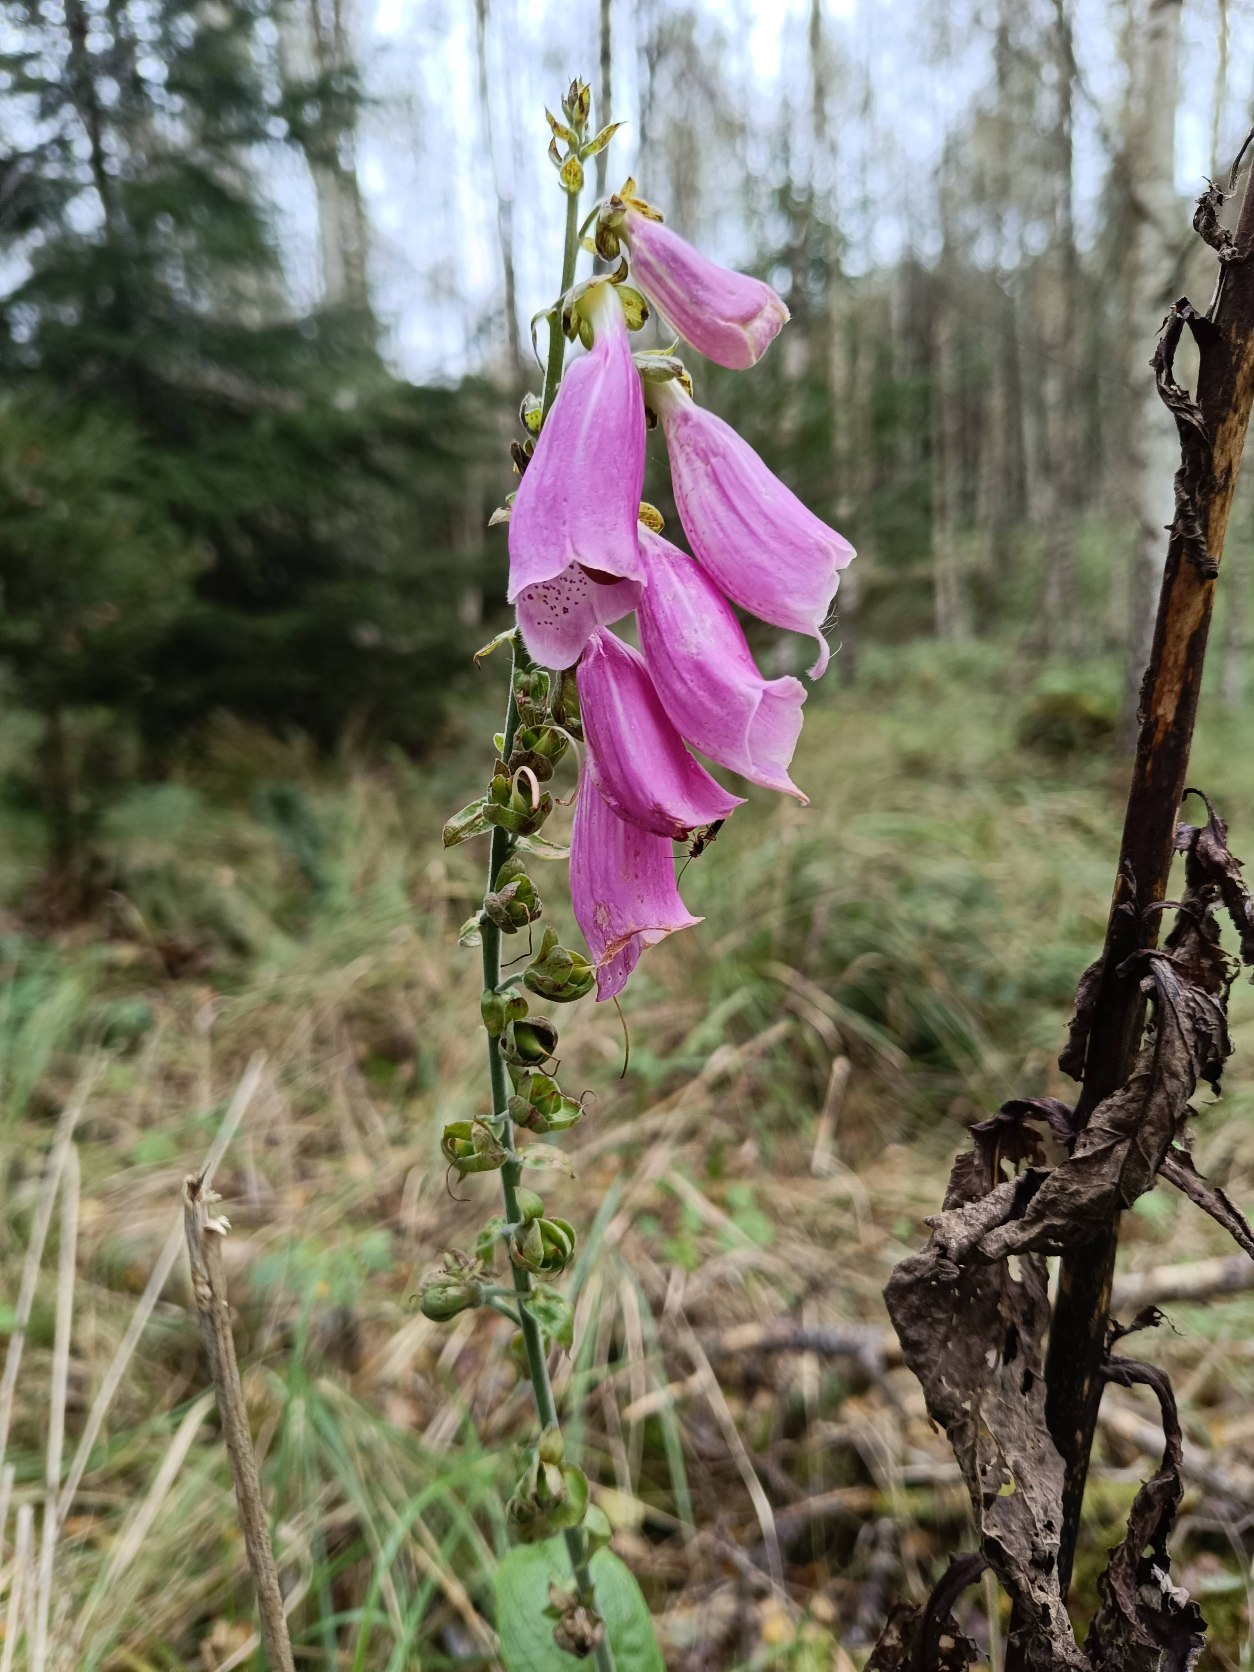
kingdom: Plantae
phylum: Tracheophyta
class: Magnoliopsida
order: Lamiales
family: Plantaginaceae
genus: Digitalis
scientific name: Digitalis purpurea
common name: Almindelig fingerbøl
